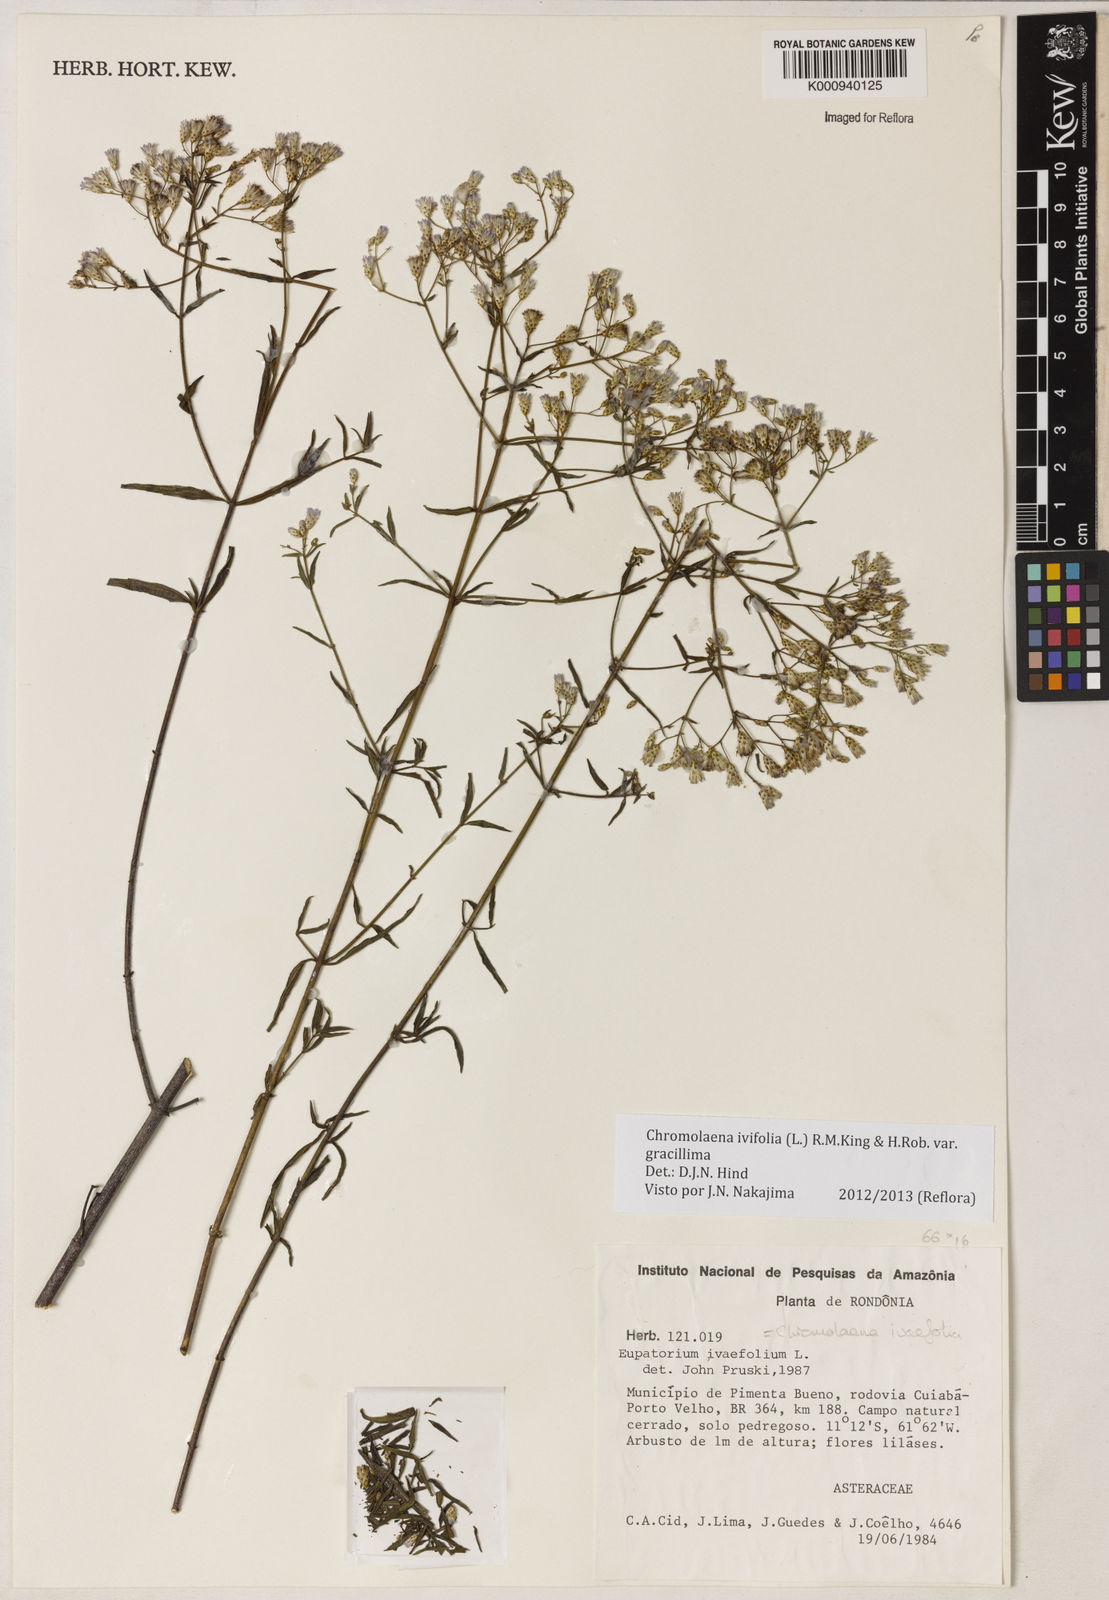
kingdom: Plantae
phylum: Tracheophyta
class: Magnoliopsida
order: Asterales
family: Asteraceae
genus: Chromolaena
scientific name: Chromolaena ivifolia
